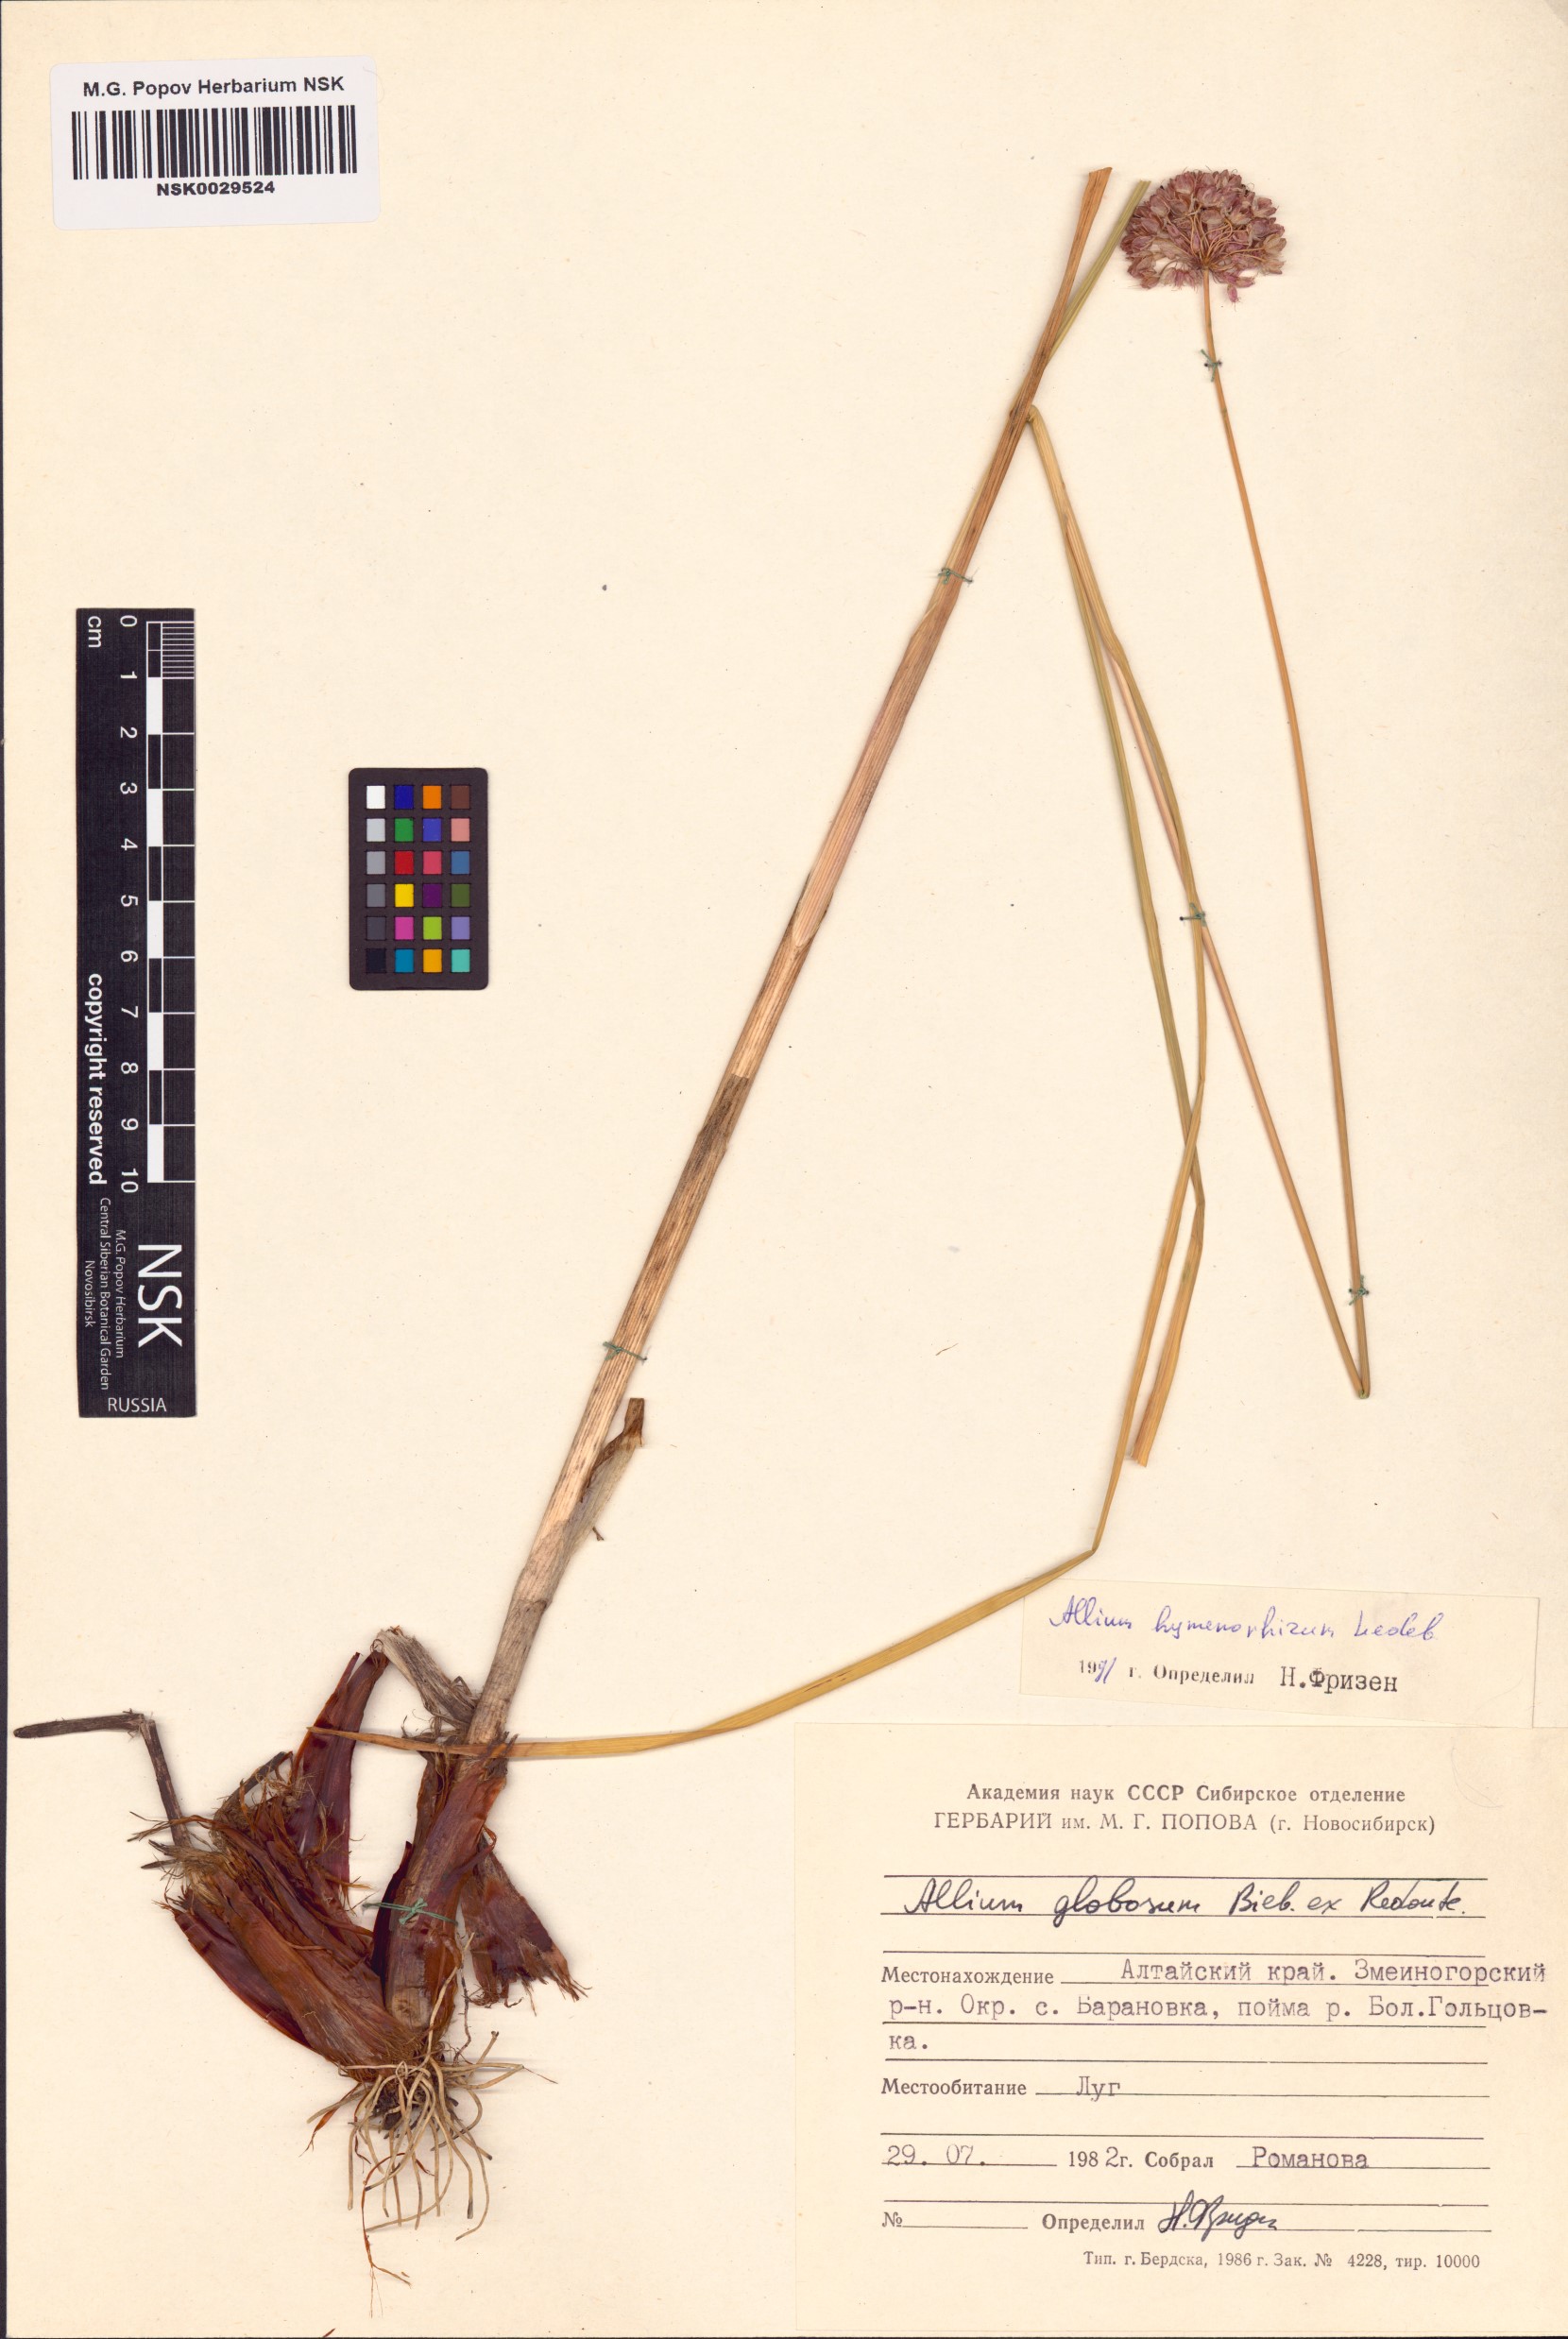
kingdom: Plantae
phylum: Tracheophyta
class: Liliopsida
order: Asparagales
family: Amaryllidaceae
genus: Allium
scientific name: Allium hymenorhizum
